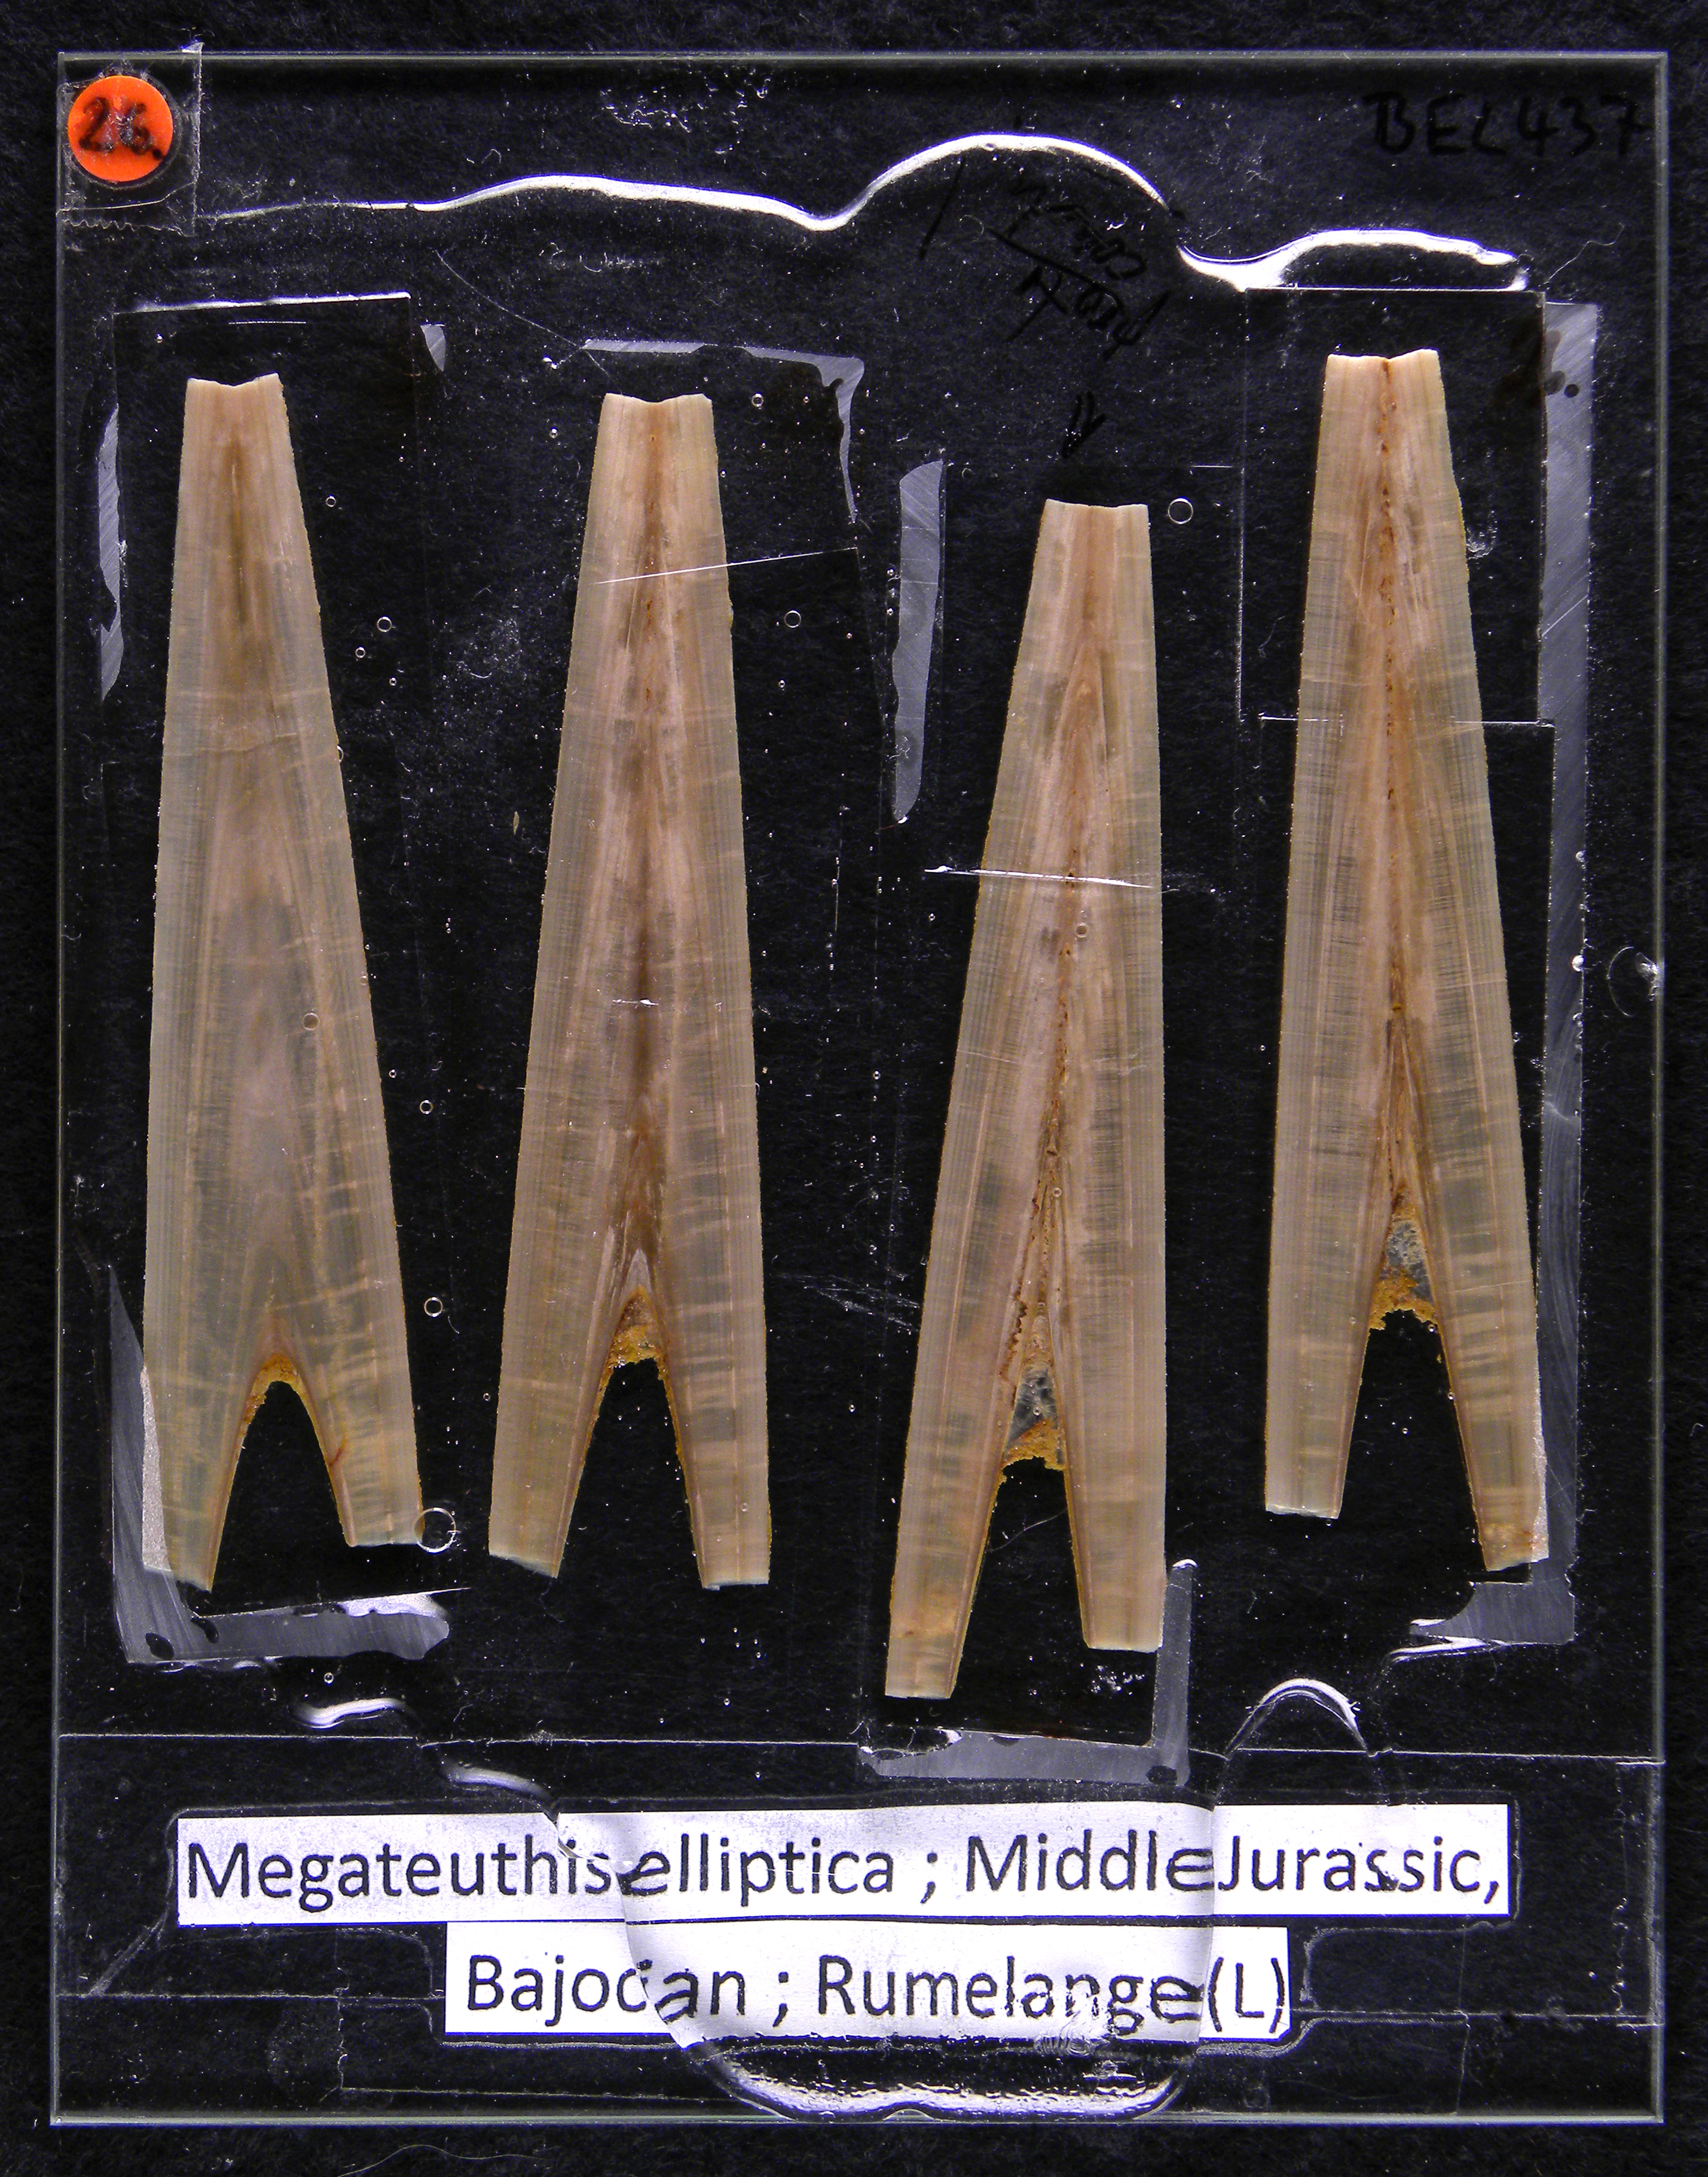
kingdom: Animalia
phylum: Mollusca
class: Cephalopoda
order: Belemnitida
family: Megateuthididae
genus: Megateuthis
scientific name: Megateuthis
